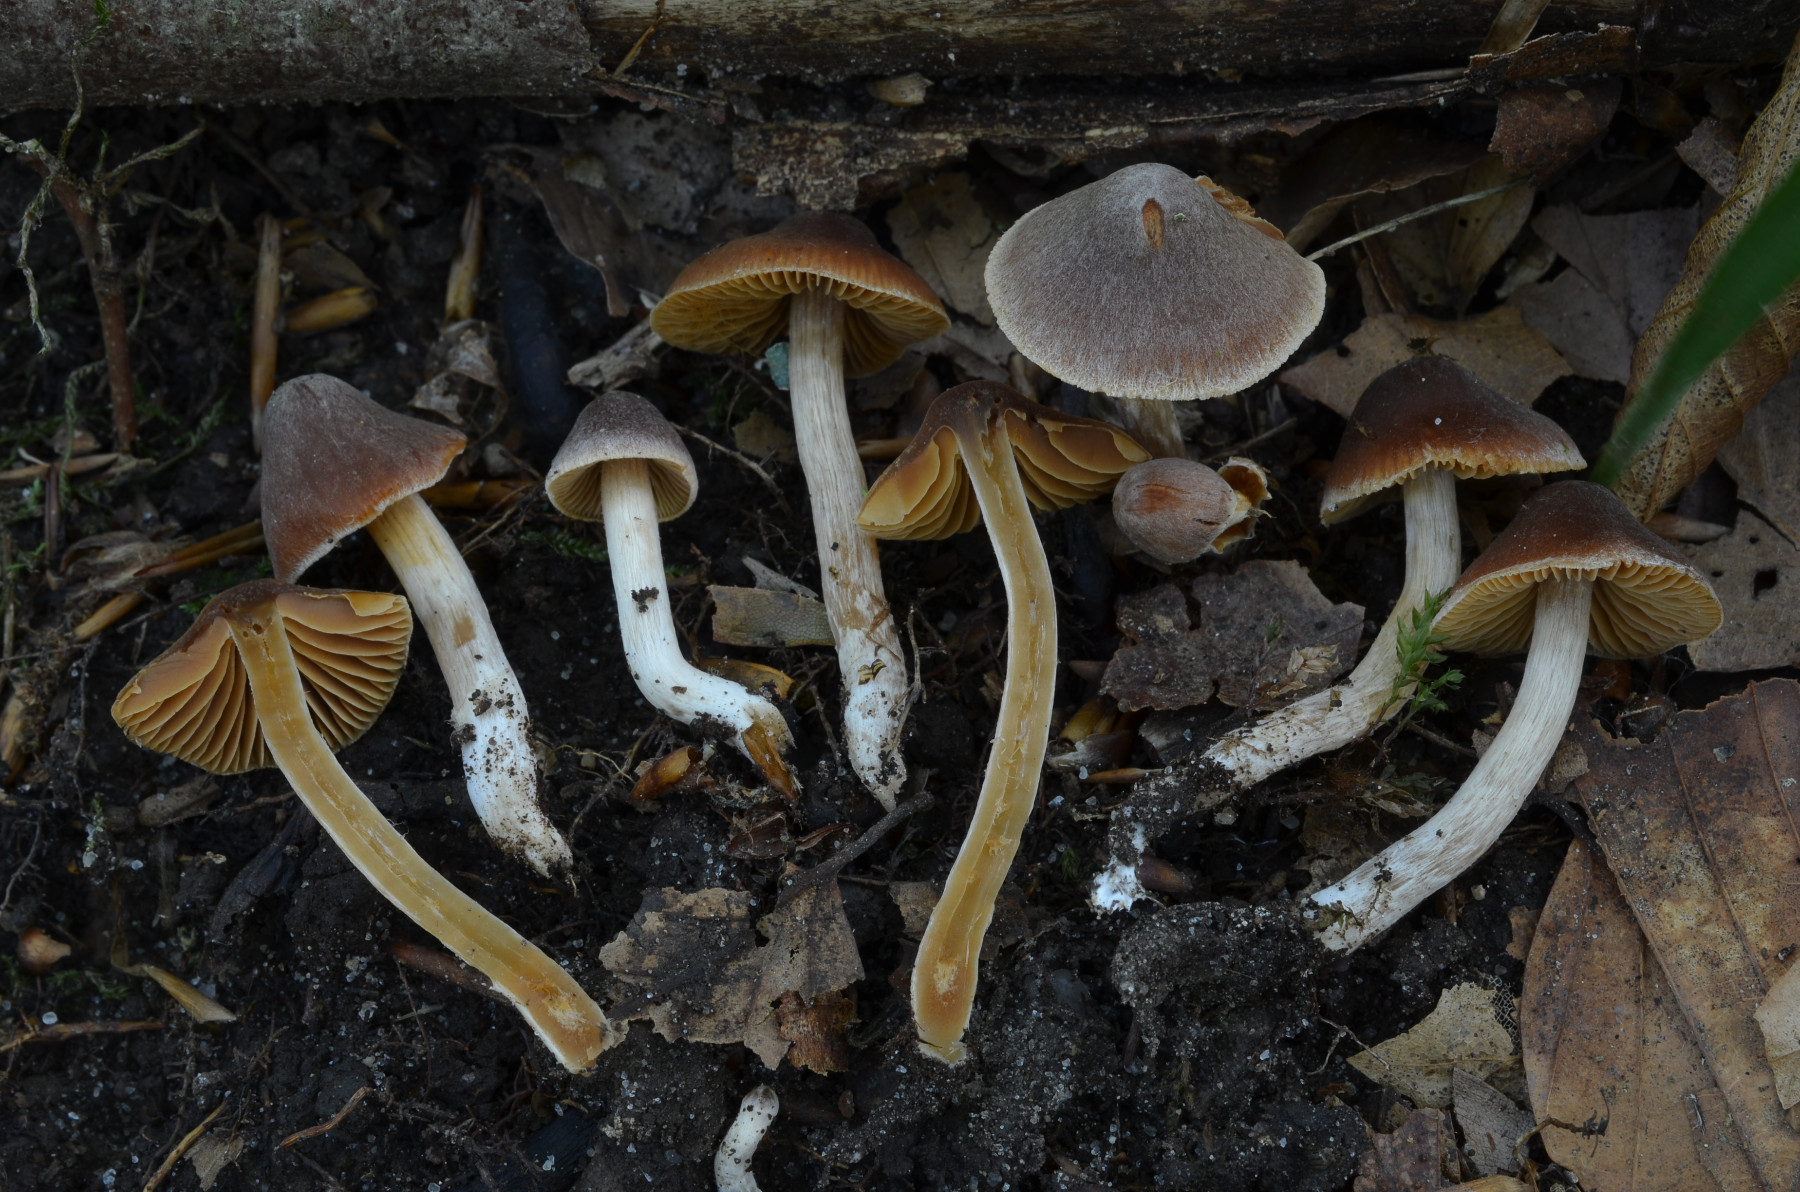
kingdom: Fungi
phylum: Basidiomycota
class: Agaricomycetes
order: Agaricales
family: Cortinariaceae
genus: Cortinarius
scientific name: Cortinarius incisus
